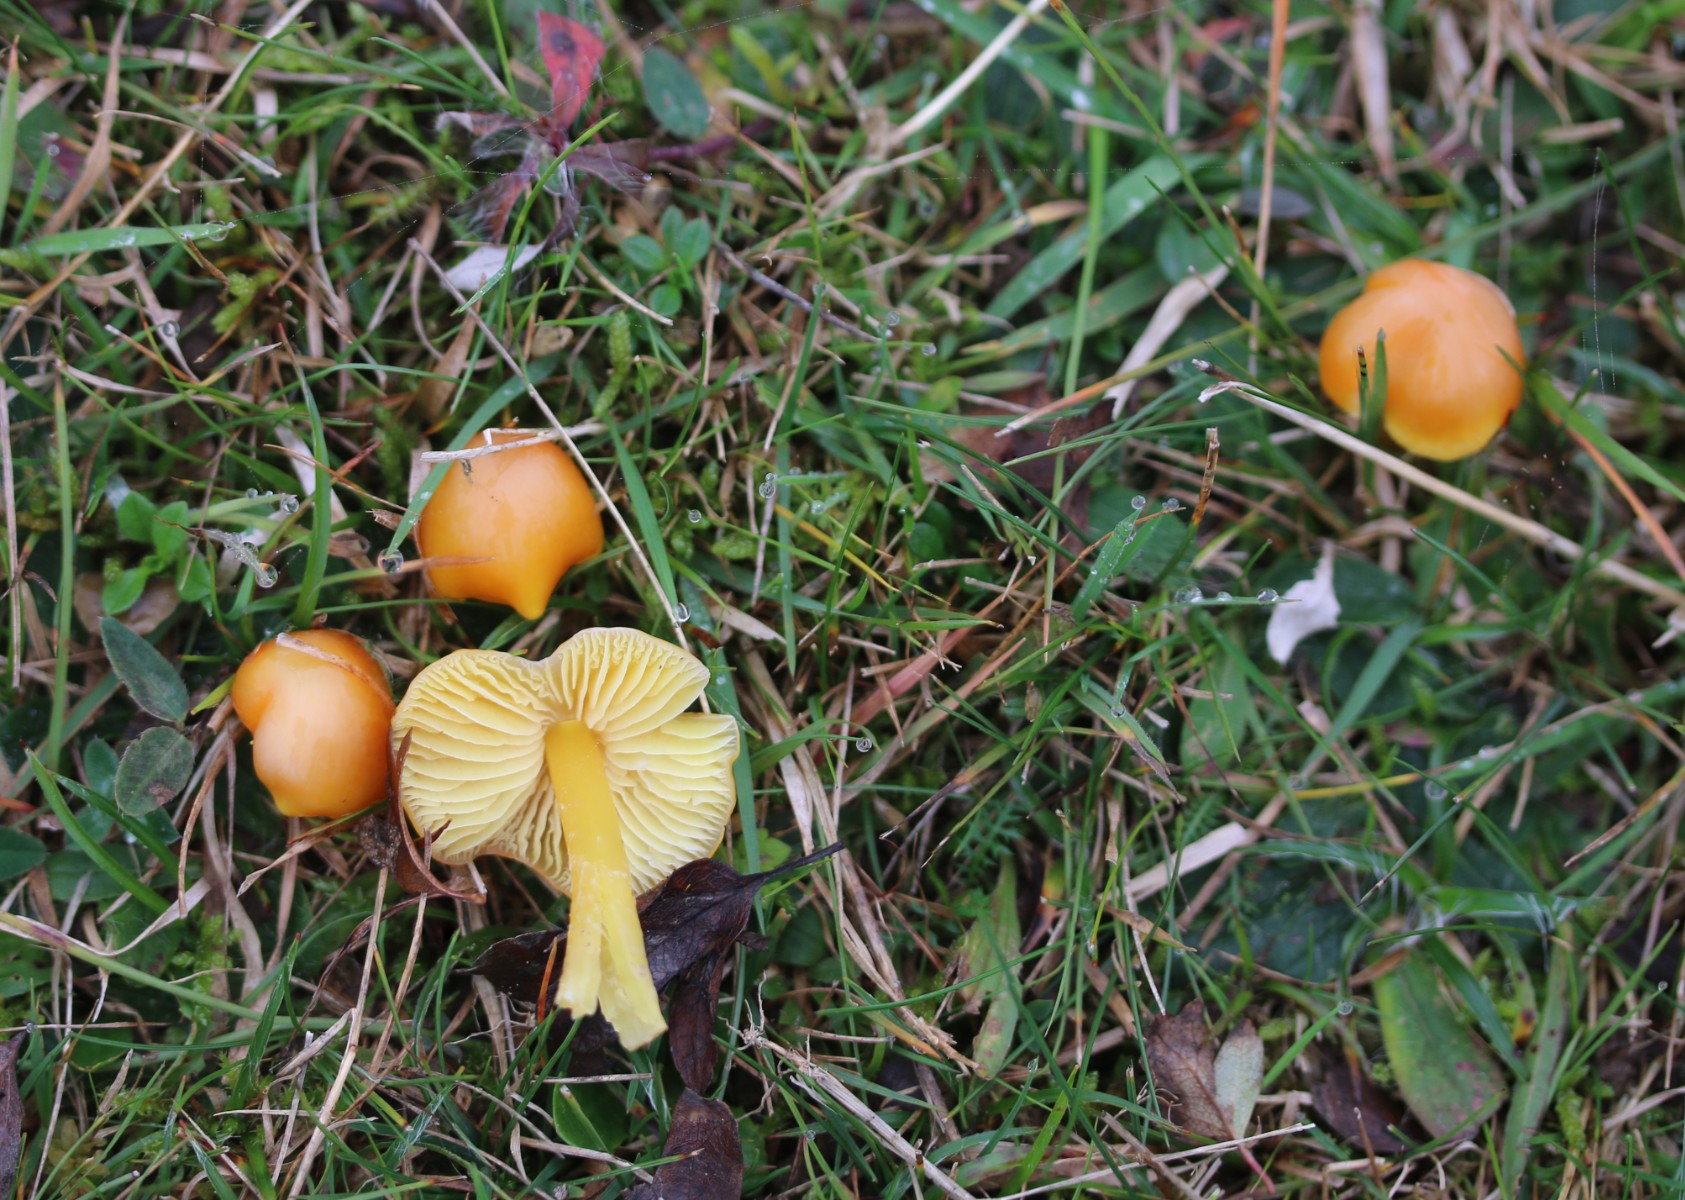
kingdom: Fungi
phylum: Basidiomycota
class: Agaricomycetes
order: Agaricales
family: Hygrophoraceae
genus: Hygrocybe
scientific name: Hygrocybe chlorophana
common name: gul vokshat
